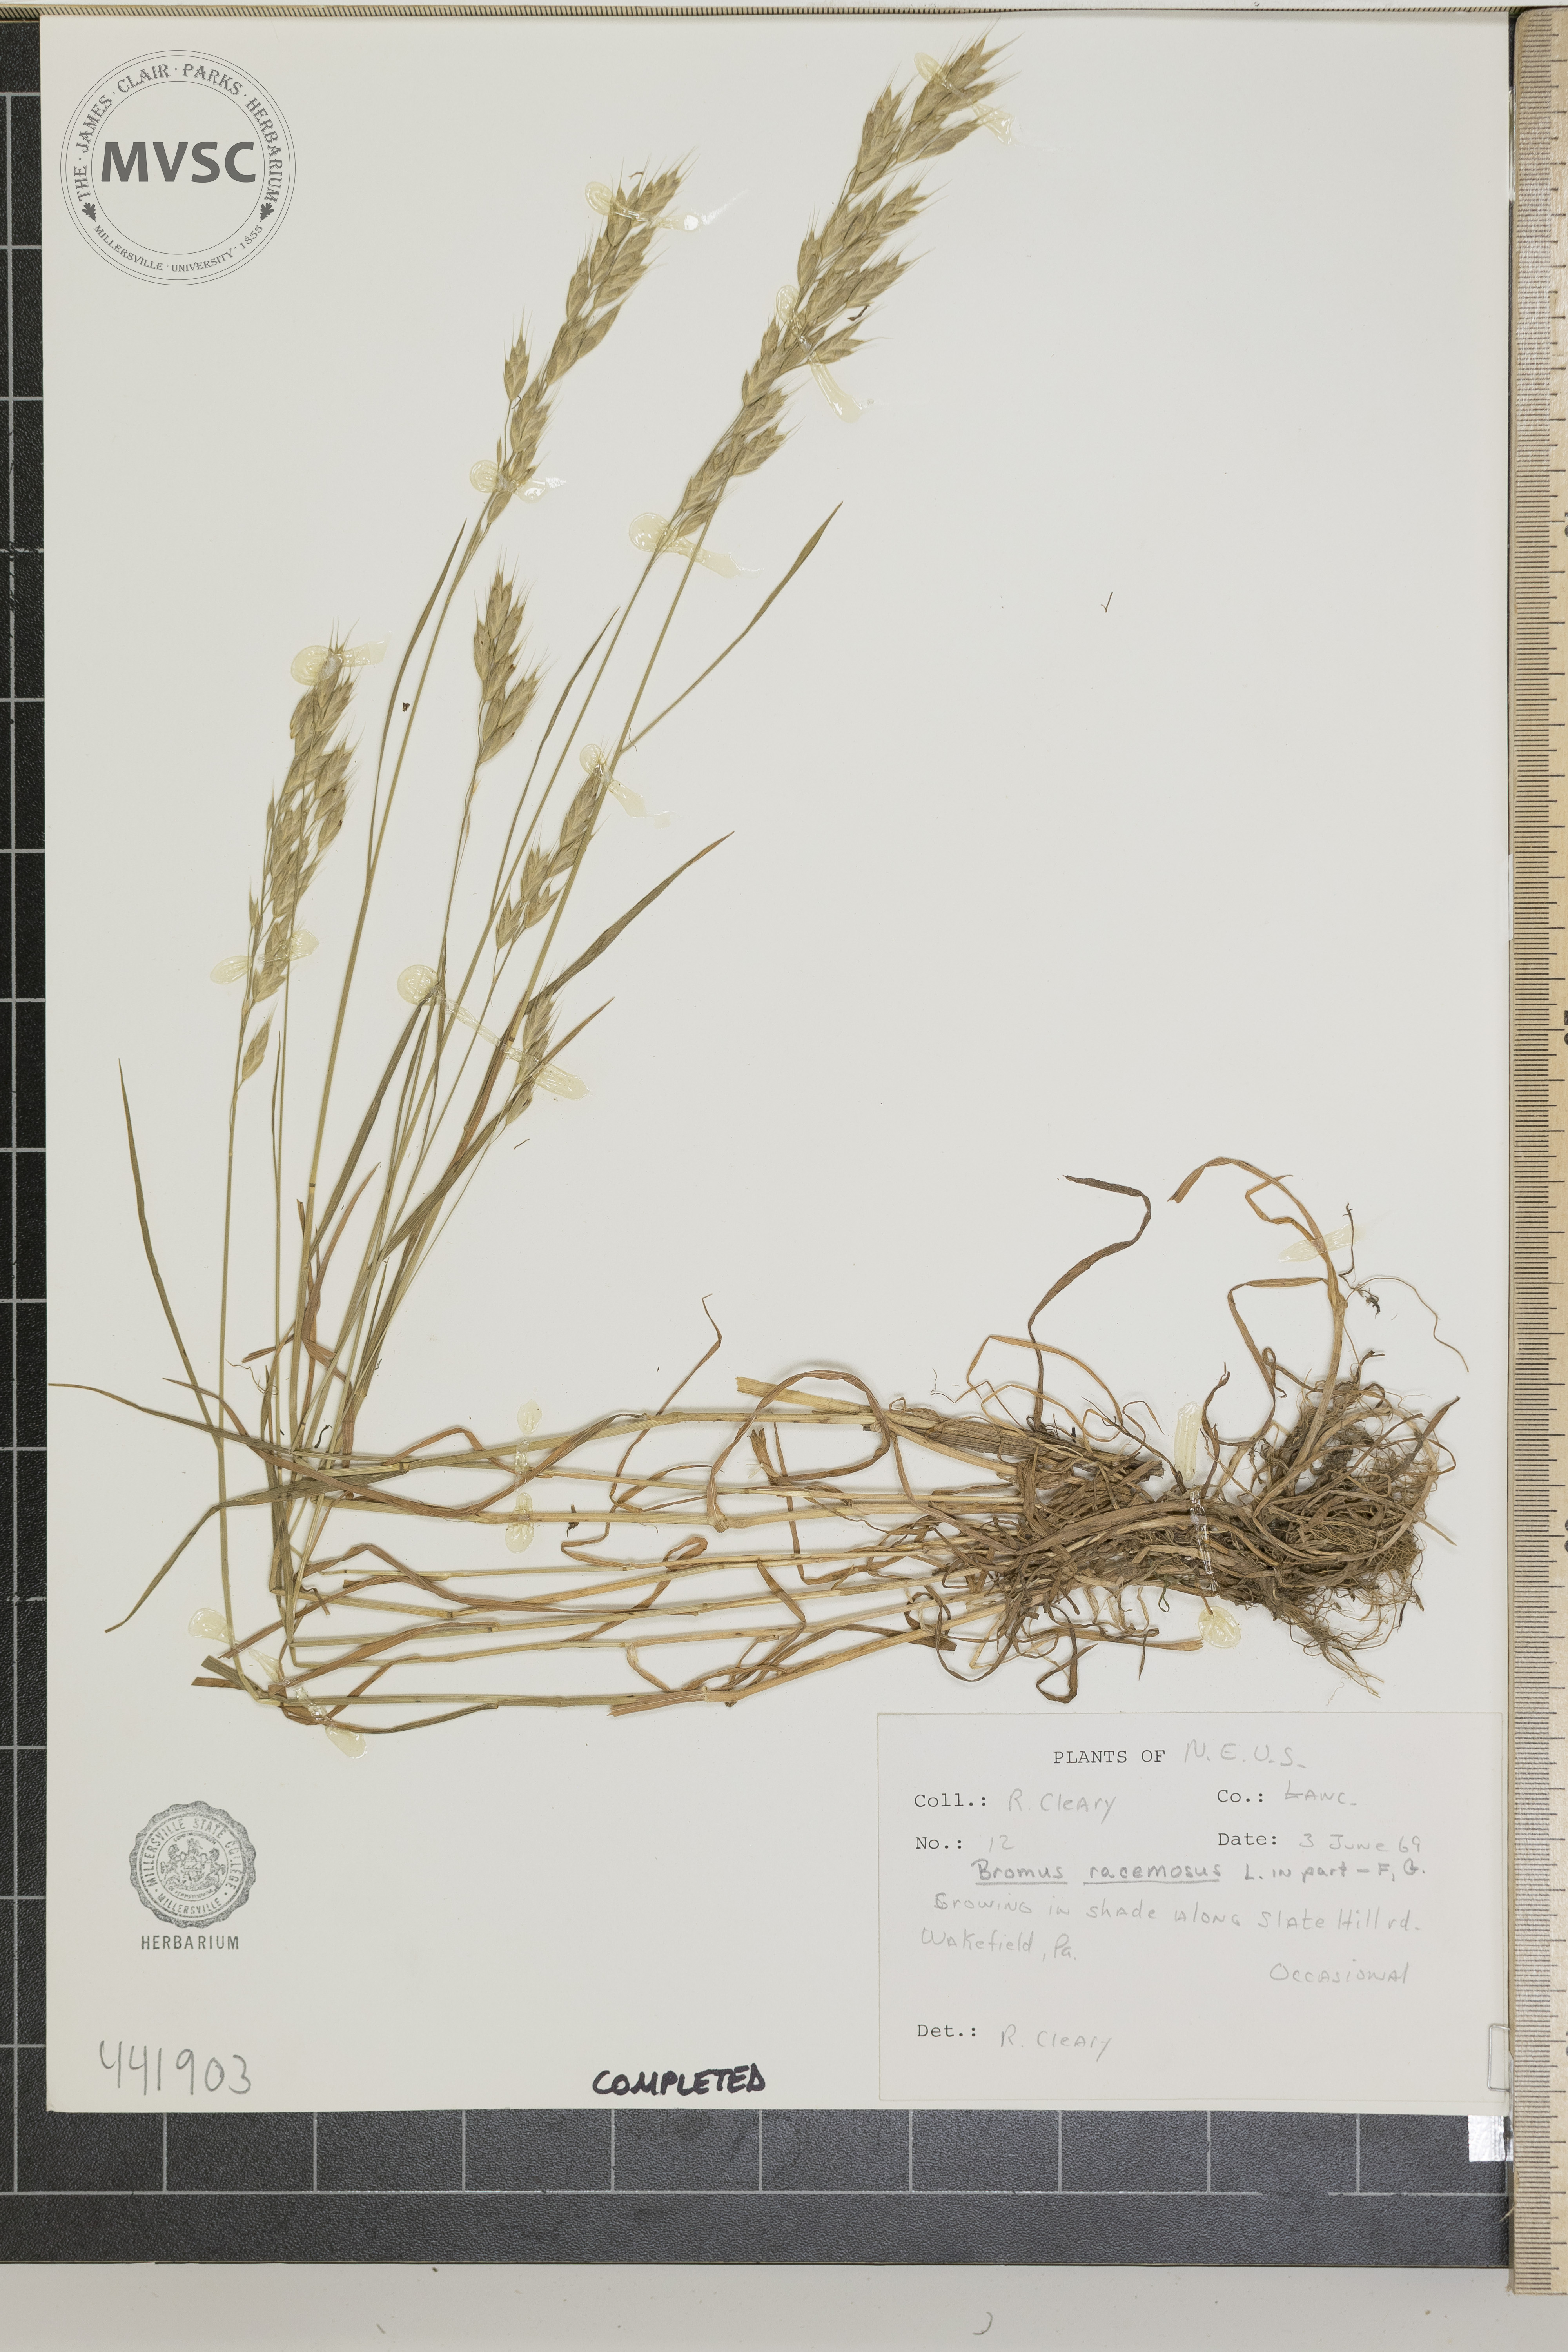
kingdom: Plantae
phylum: Tracheophyta
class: Liliopsida
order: Poales
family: Poaceae
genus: Bromus
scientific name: Bromus racemosus
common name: Bald brome
